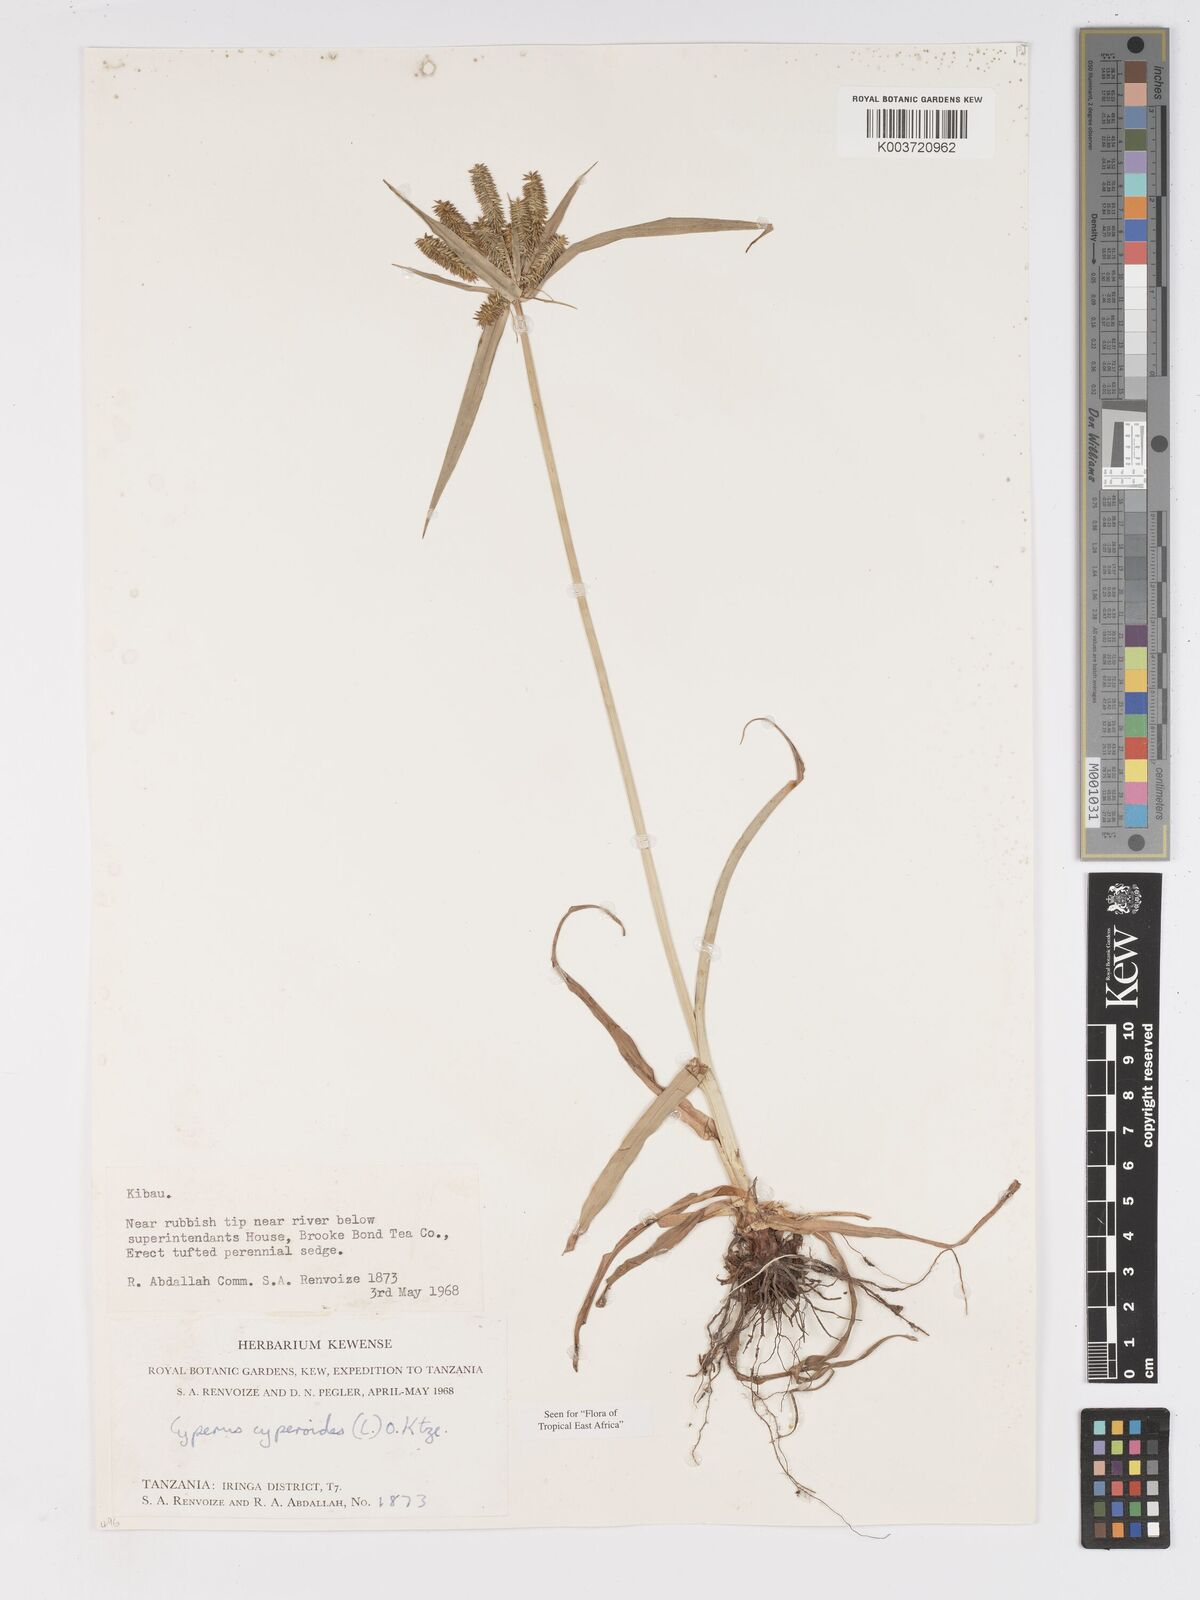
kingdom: Plantae
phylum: Tracheophyta
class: Liliopsida
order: Poales
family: Cyperaceae
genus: Cyperus
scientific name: Cyperus cyperoides
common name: Pacific island flat sedge
